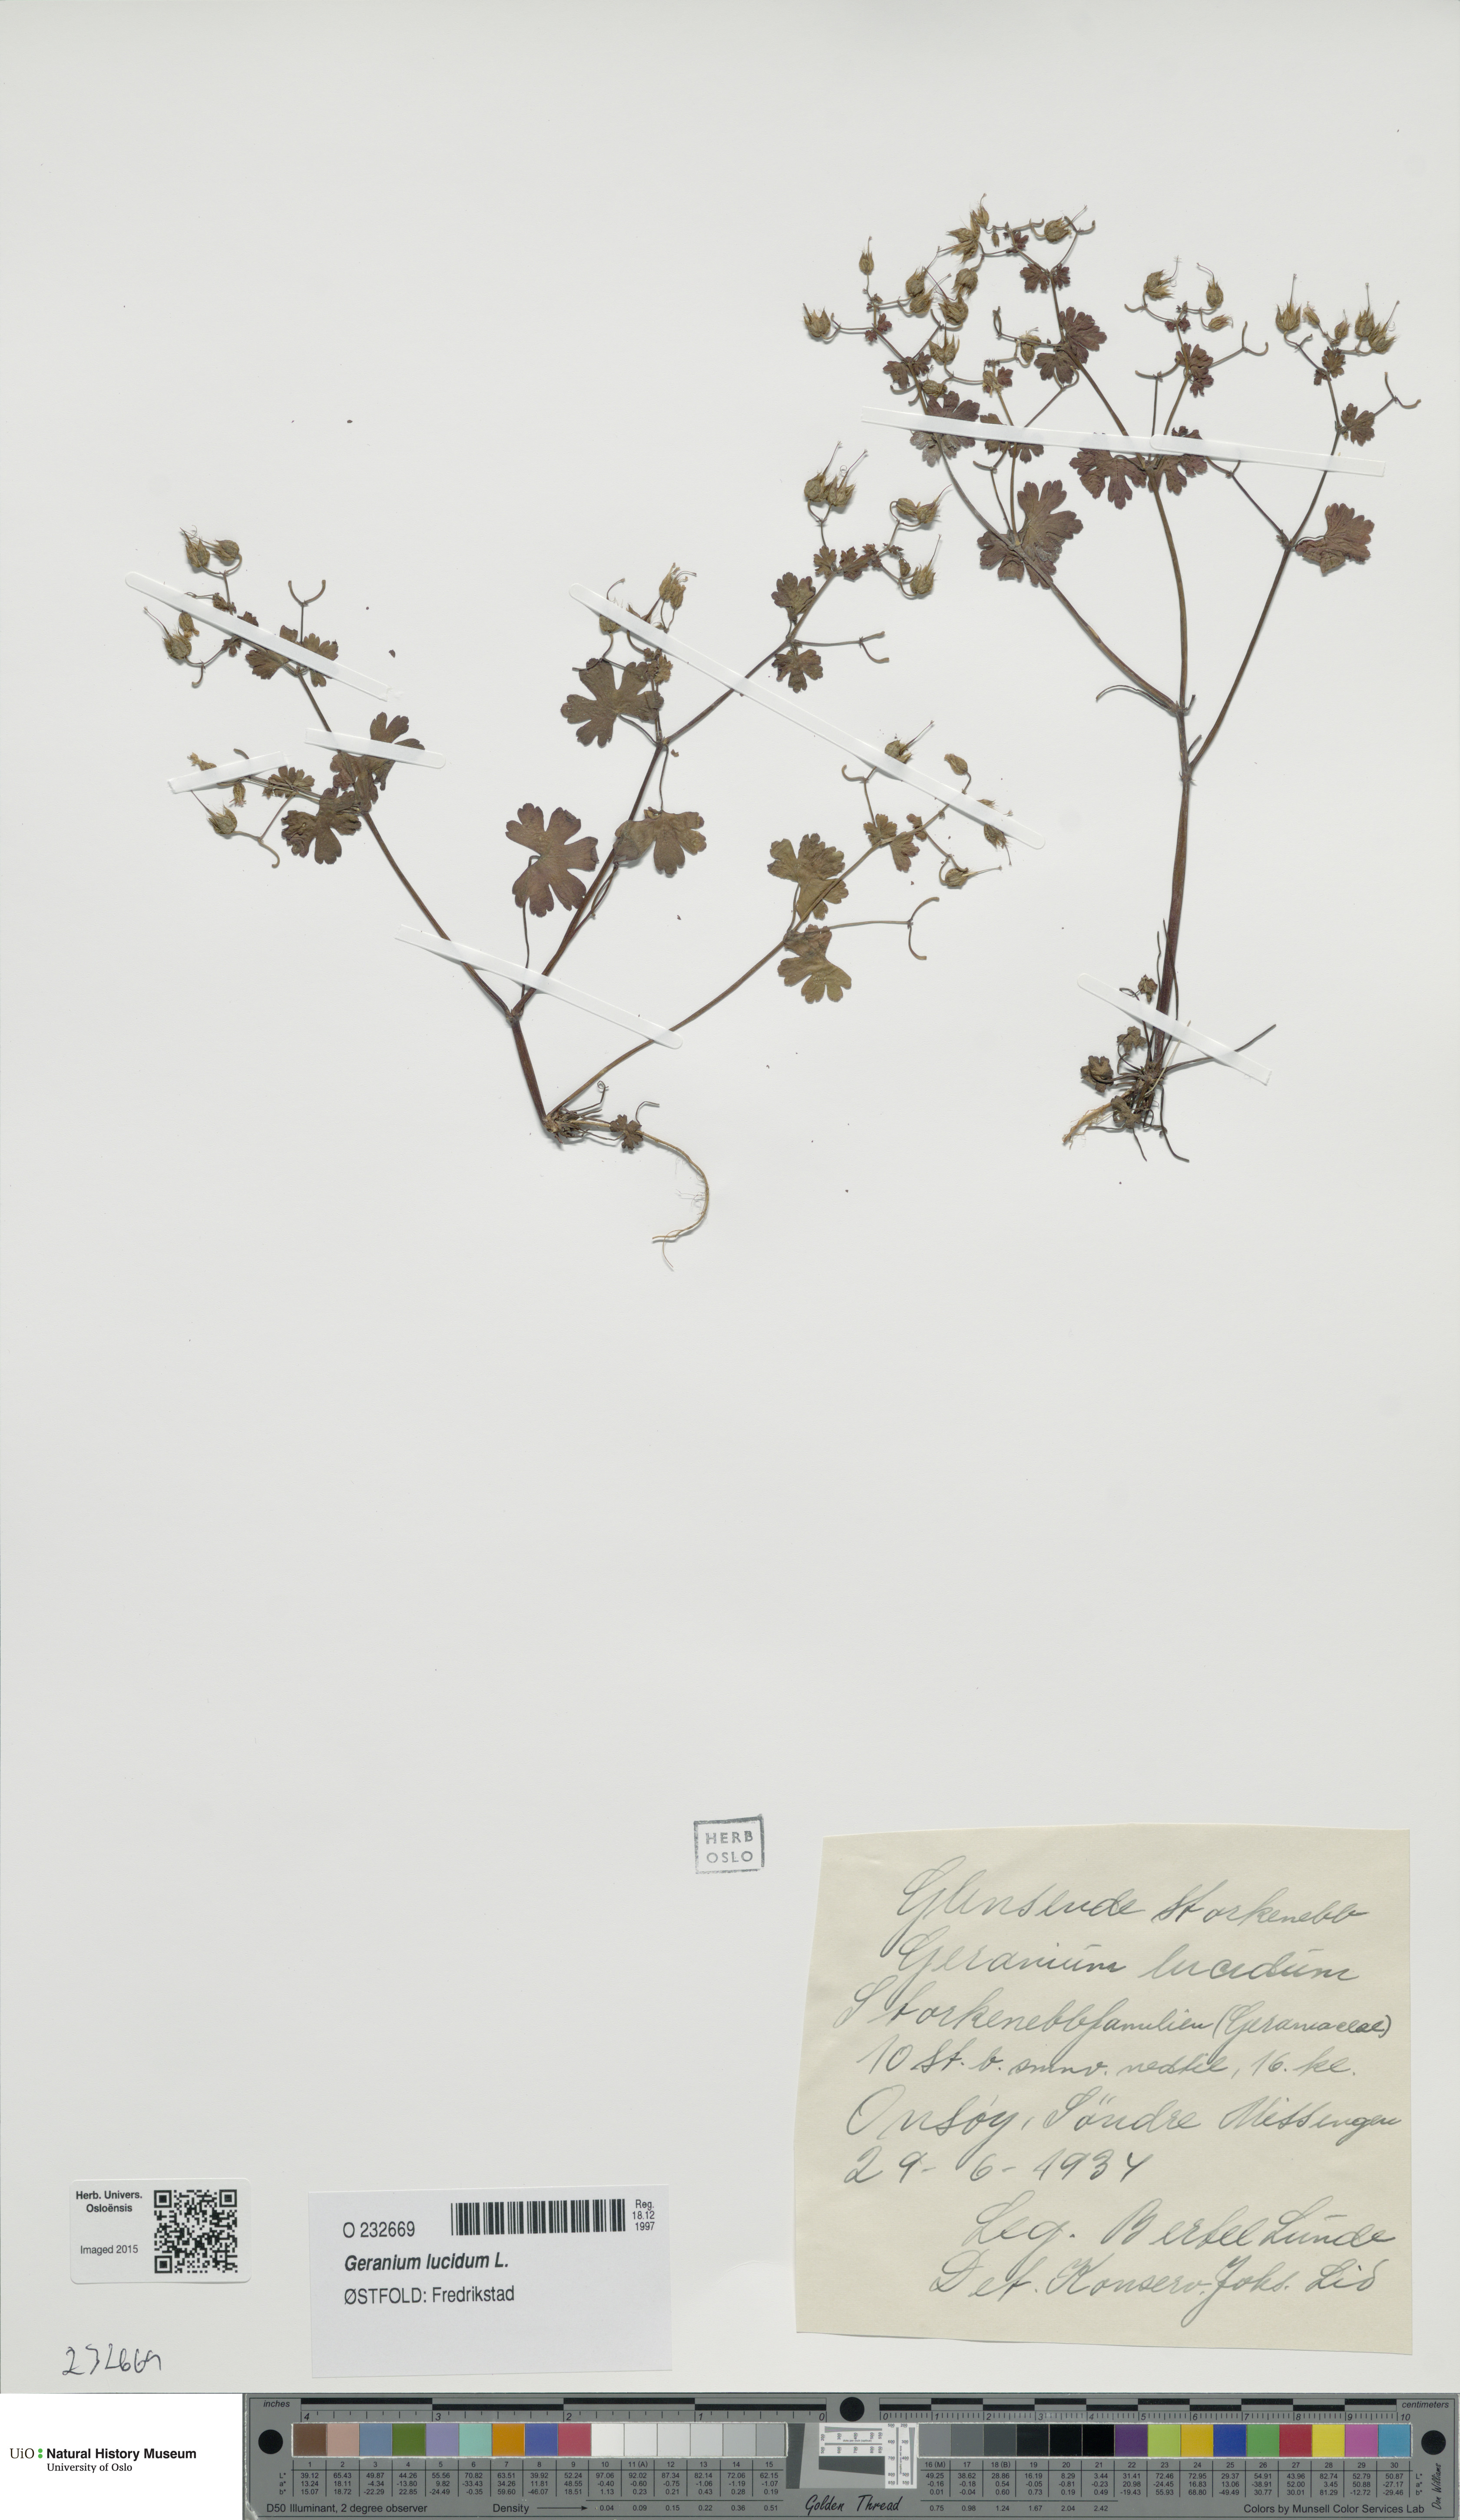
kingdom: Plantae
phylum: Tracheophyta
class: Magnoliopsida
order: Geraniales
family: Geraniaceae
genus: Geranium
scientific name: Geranium lucidum
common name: Shining crane's-bill
